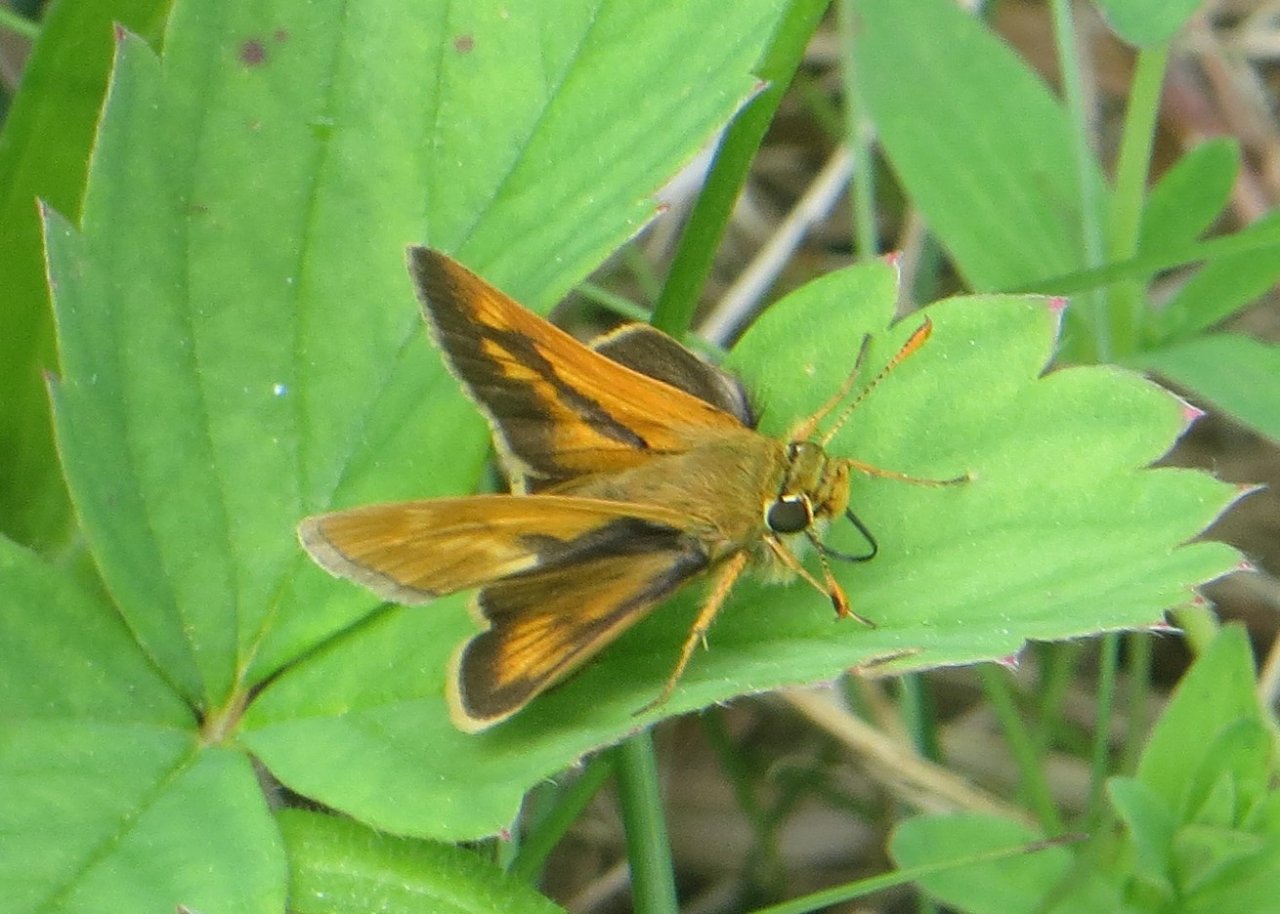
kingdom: Animalia
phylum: Arthropoda
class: Insecta
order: Lepidoptera
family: Hesperiidae
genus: Polites
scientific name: Polites
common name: Long Dash Skipper
